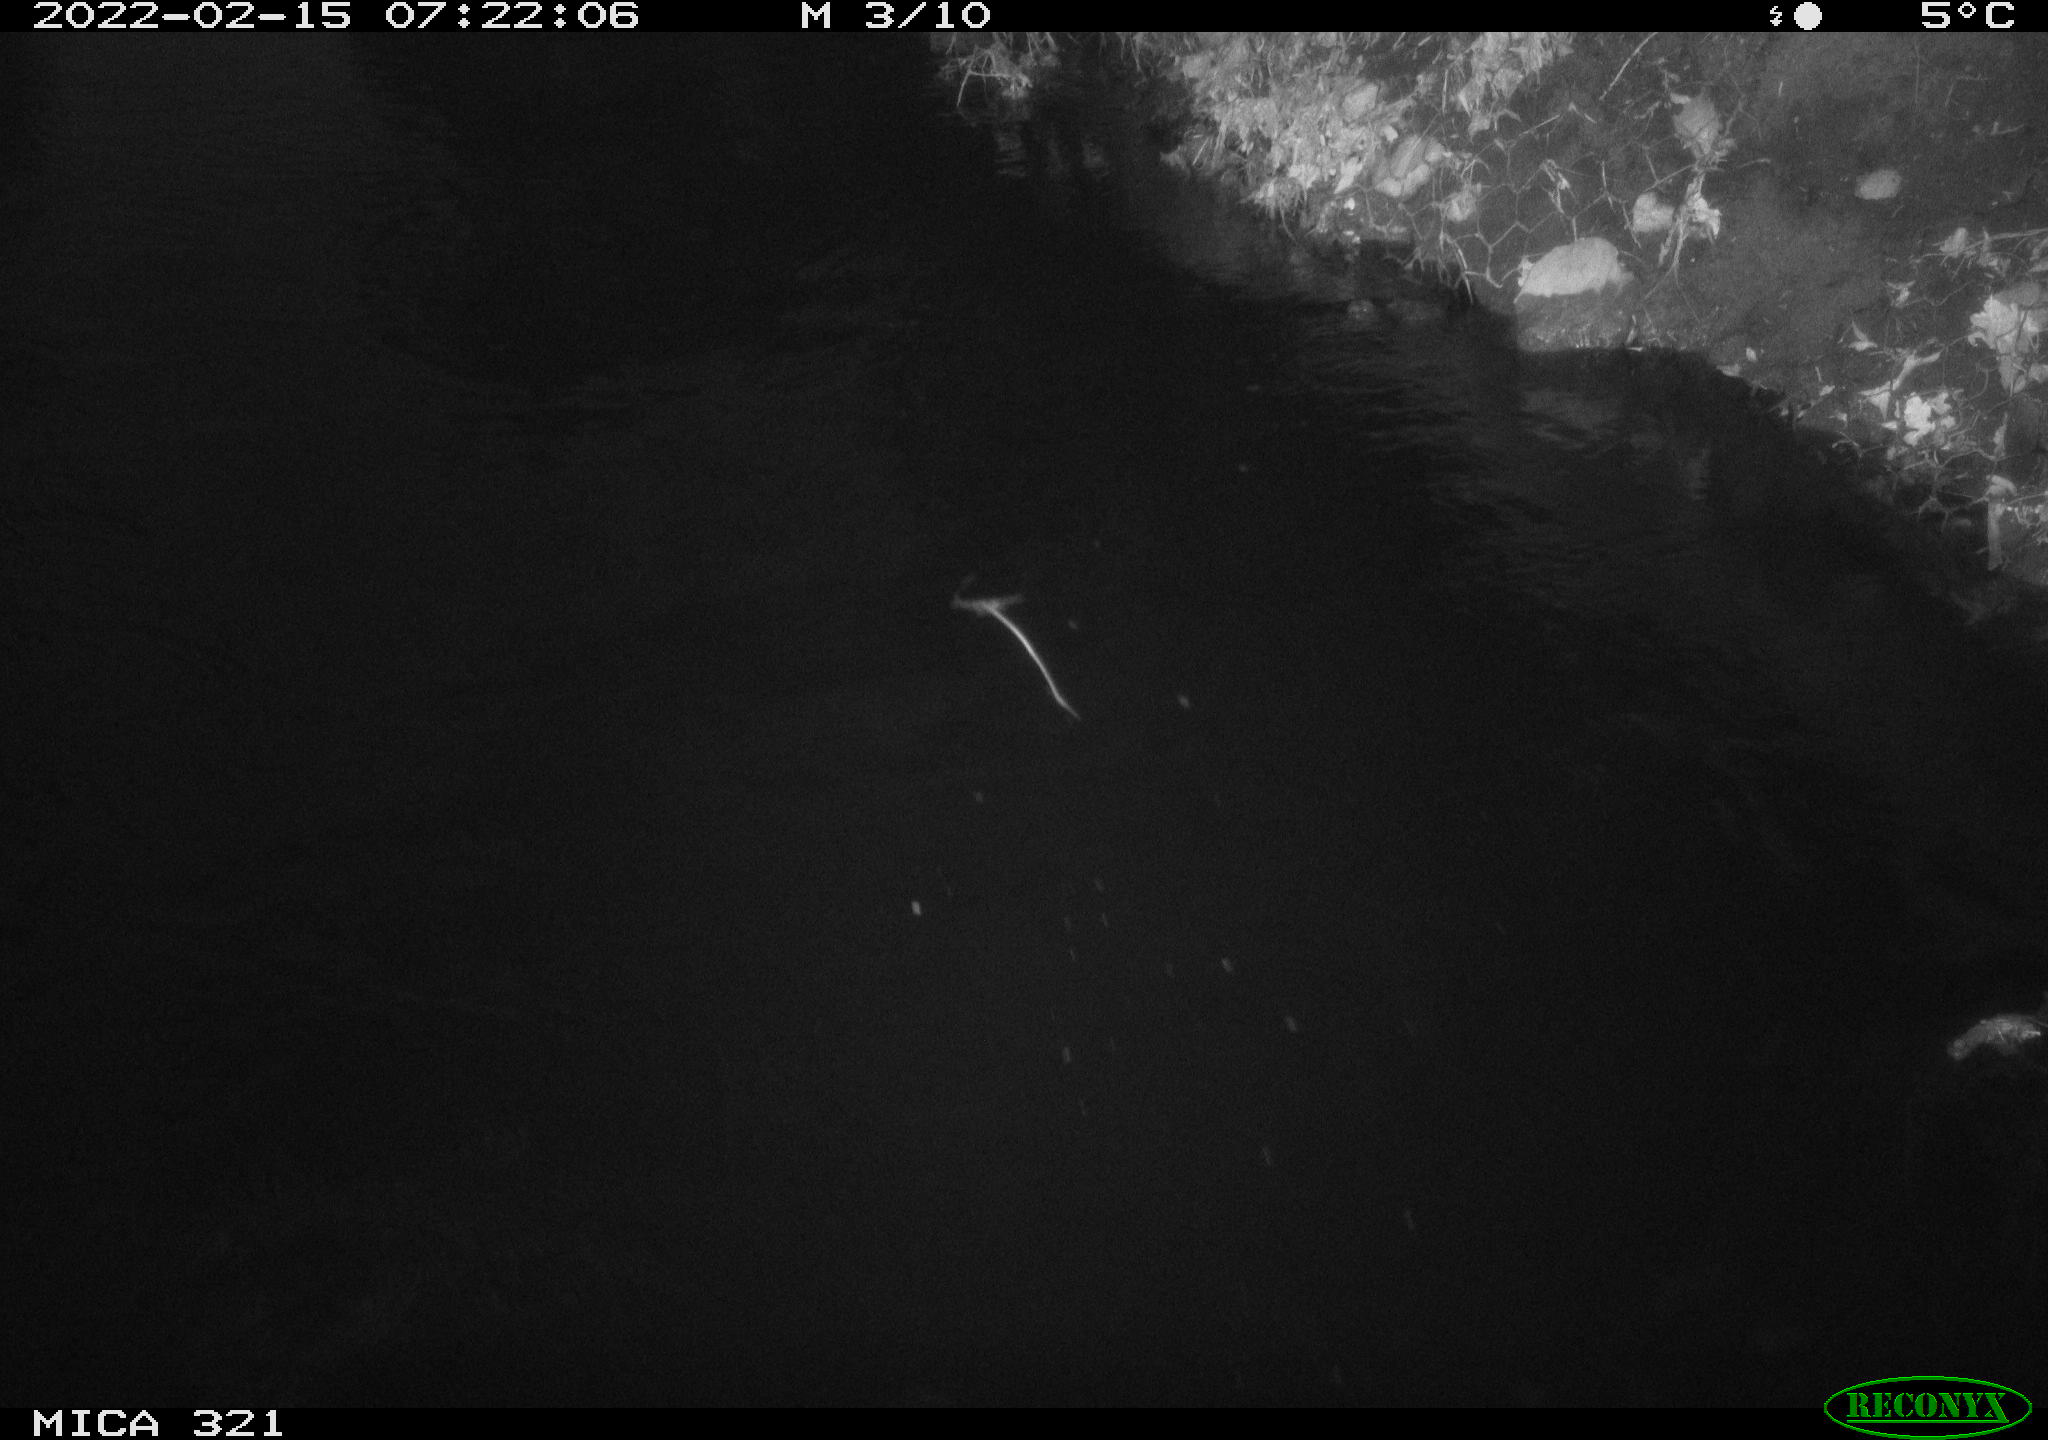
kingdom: Animalia
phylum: Chordata
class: Aves
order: Anseriformes
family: Anatidae
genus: Anas
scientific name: Anas platyrhynchos
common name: Mallard
